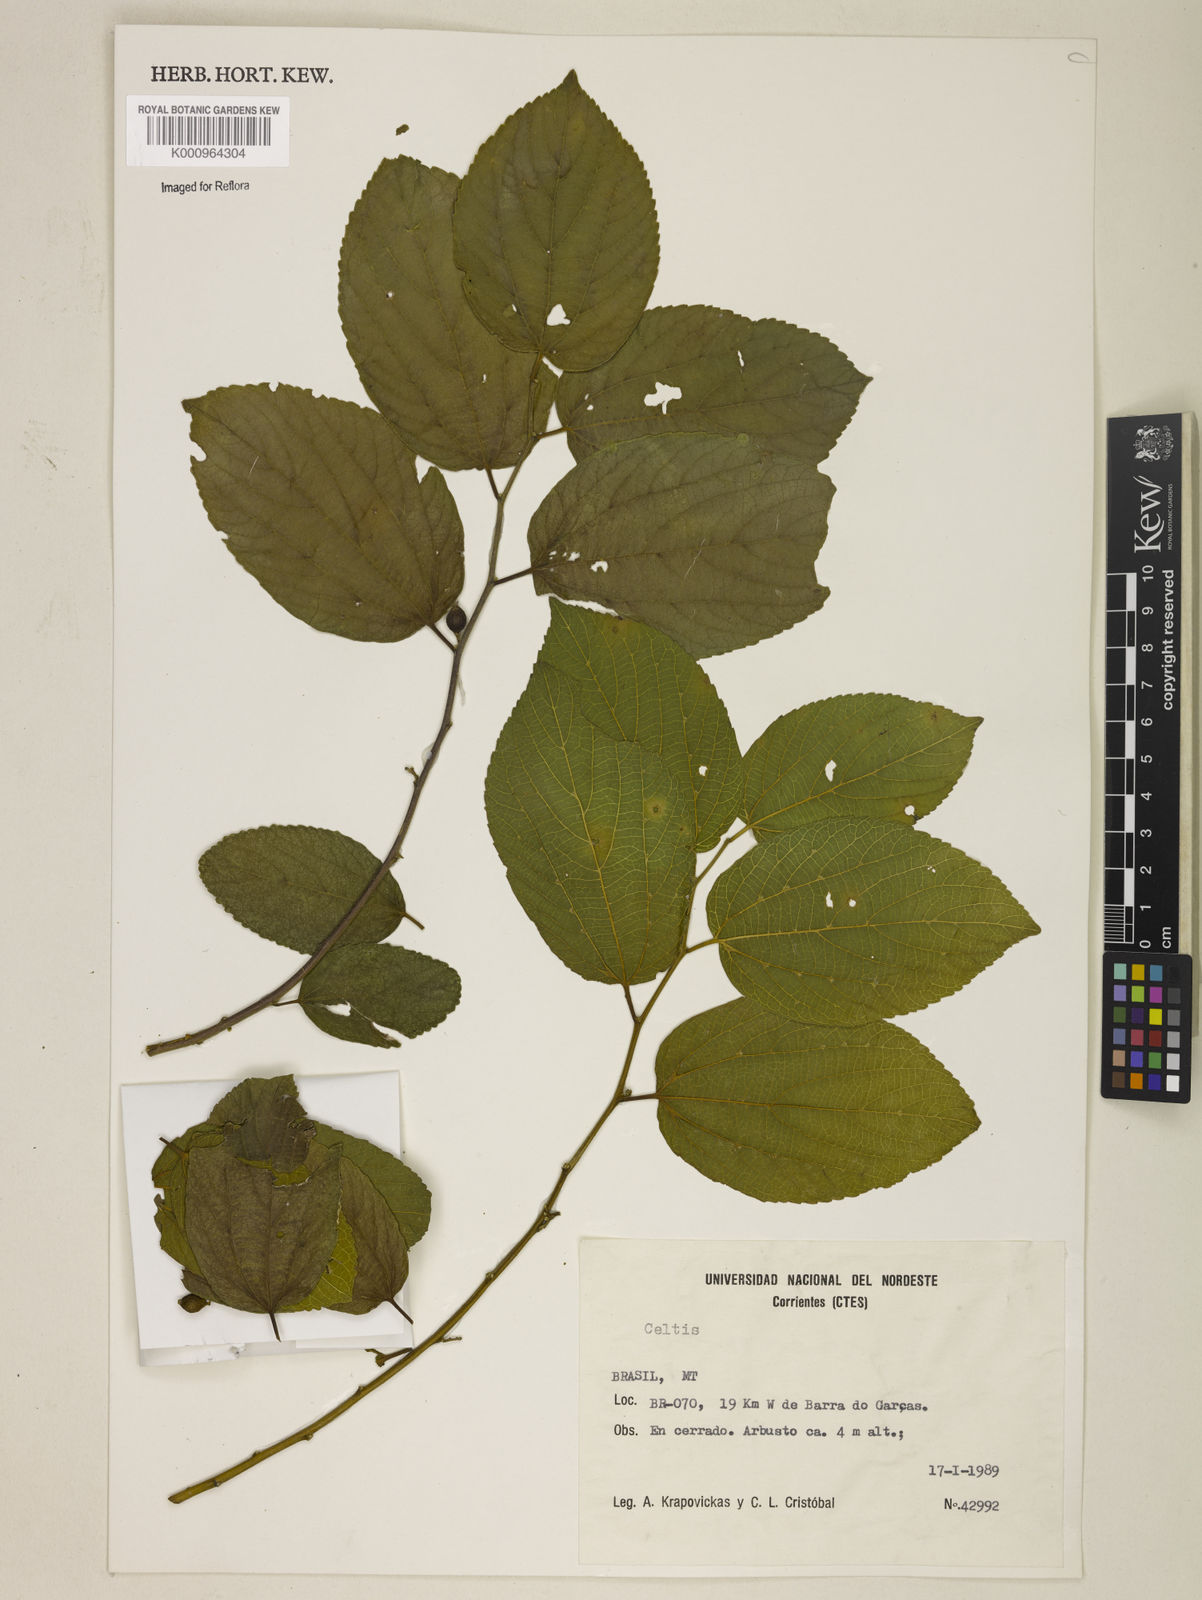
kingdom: Plantae
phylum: Tracheophyta
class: Magnoliopsida
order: Rosales
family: Cannabaceae
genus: Celtis
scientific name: Celtis
